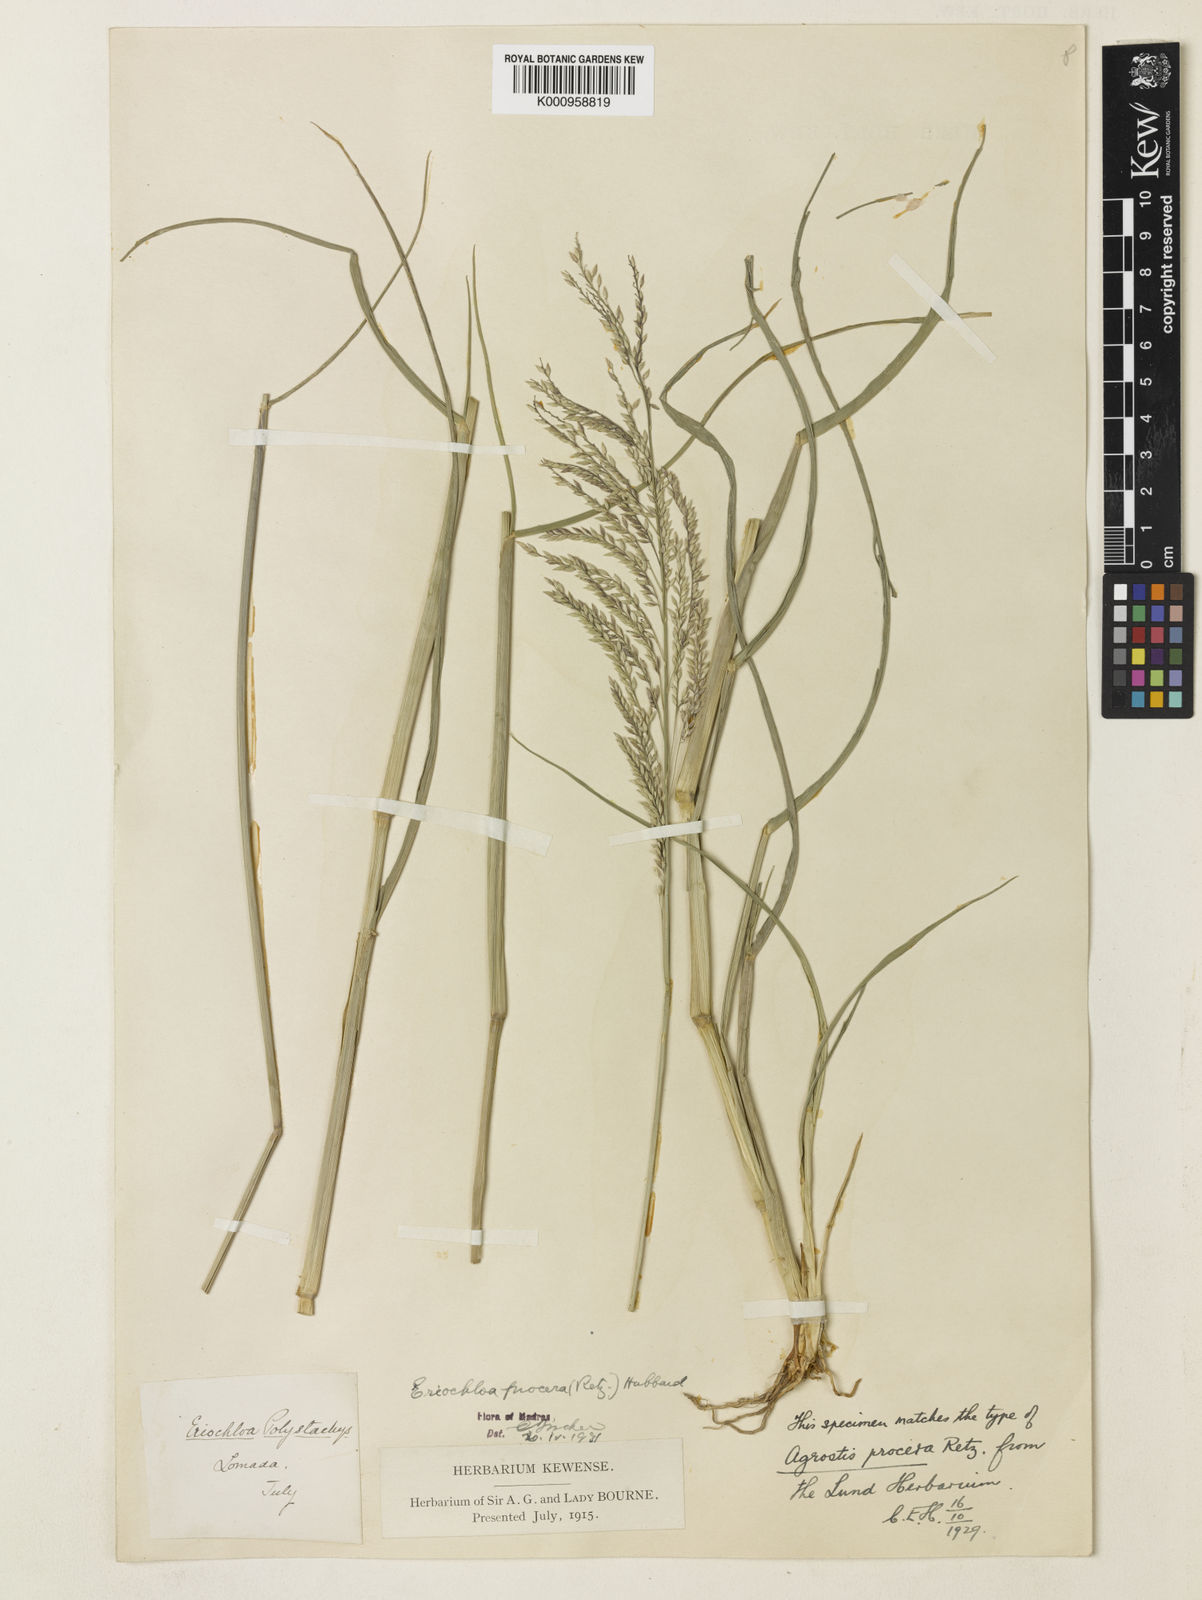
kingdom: Plantae
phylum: Tracheophyta
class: Liliopsida
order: Poales
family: Poaceae
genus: Eriochloa
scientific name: Eriochloa procera
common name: Spring grass
